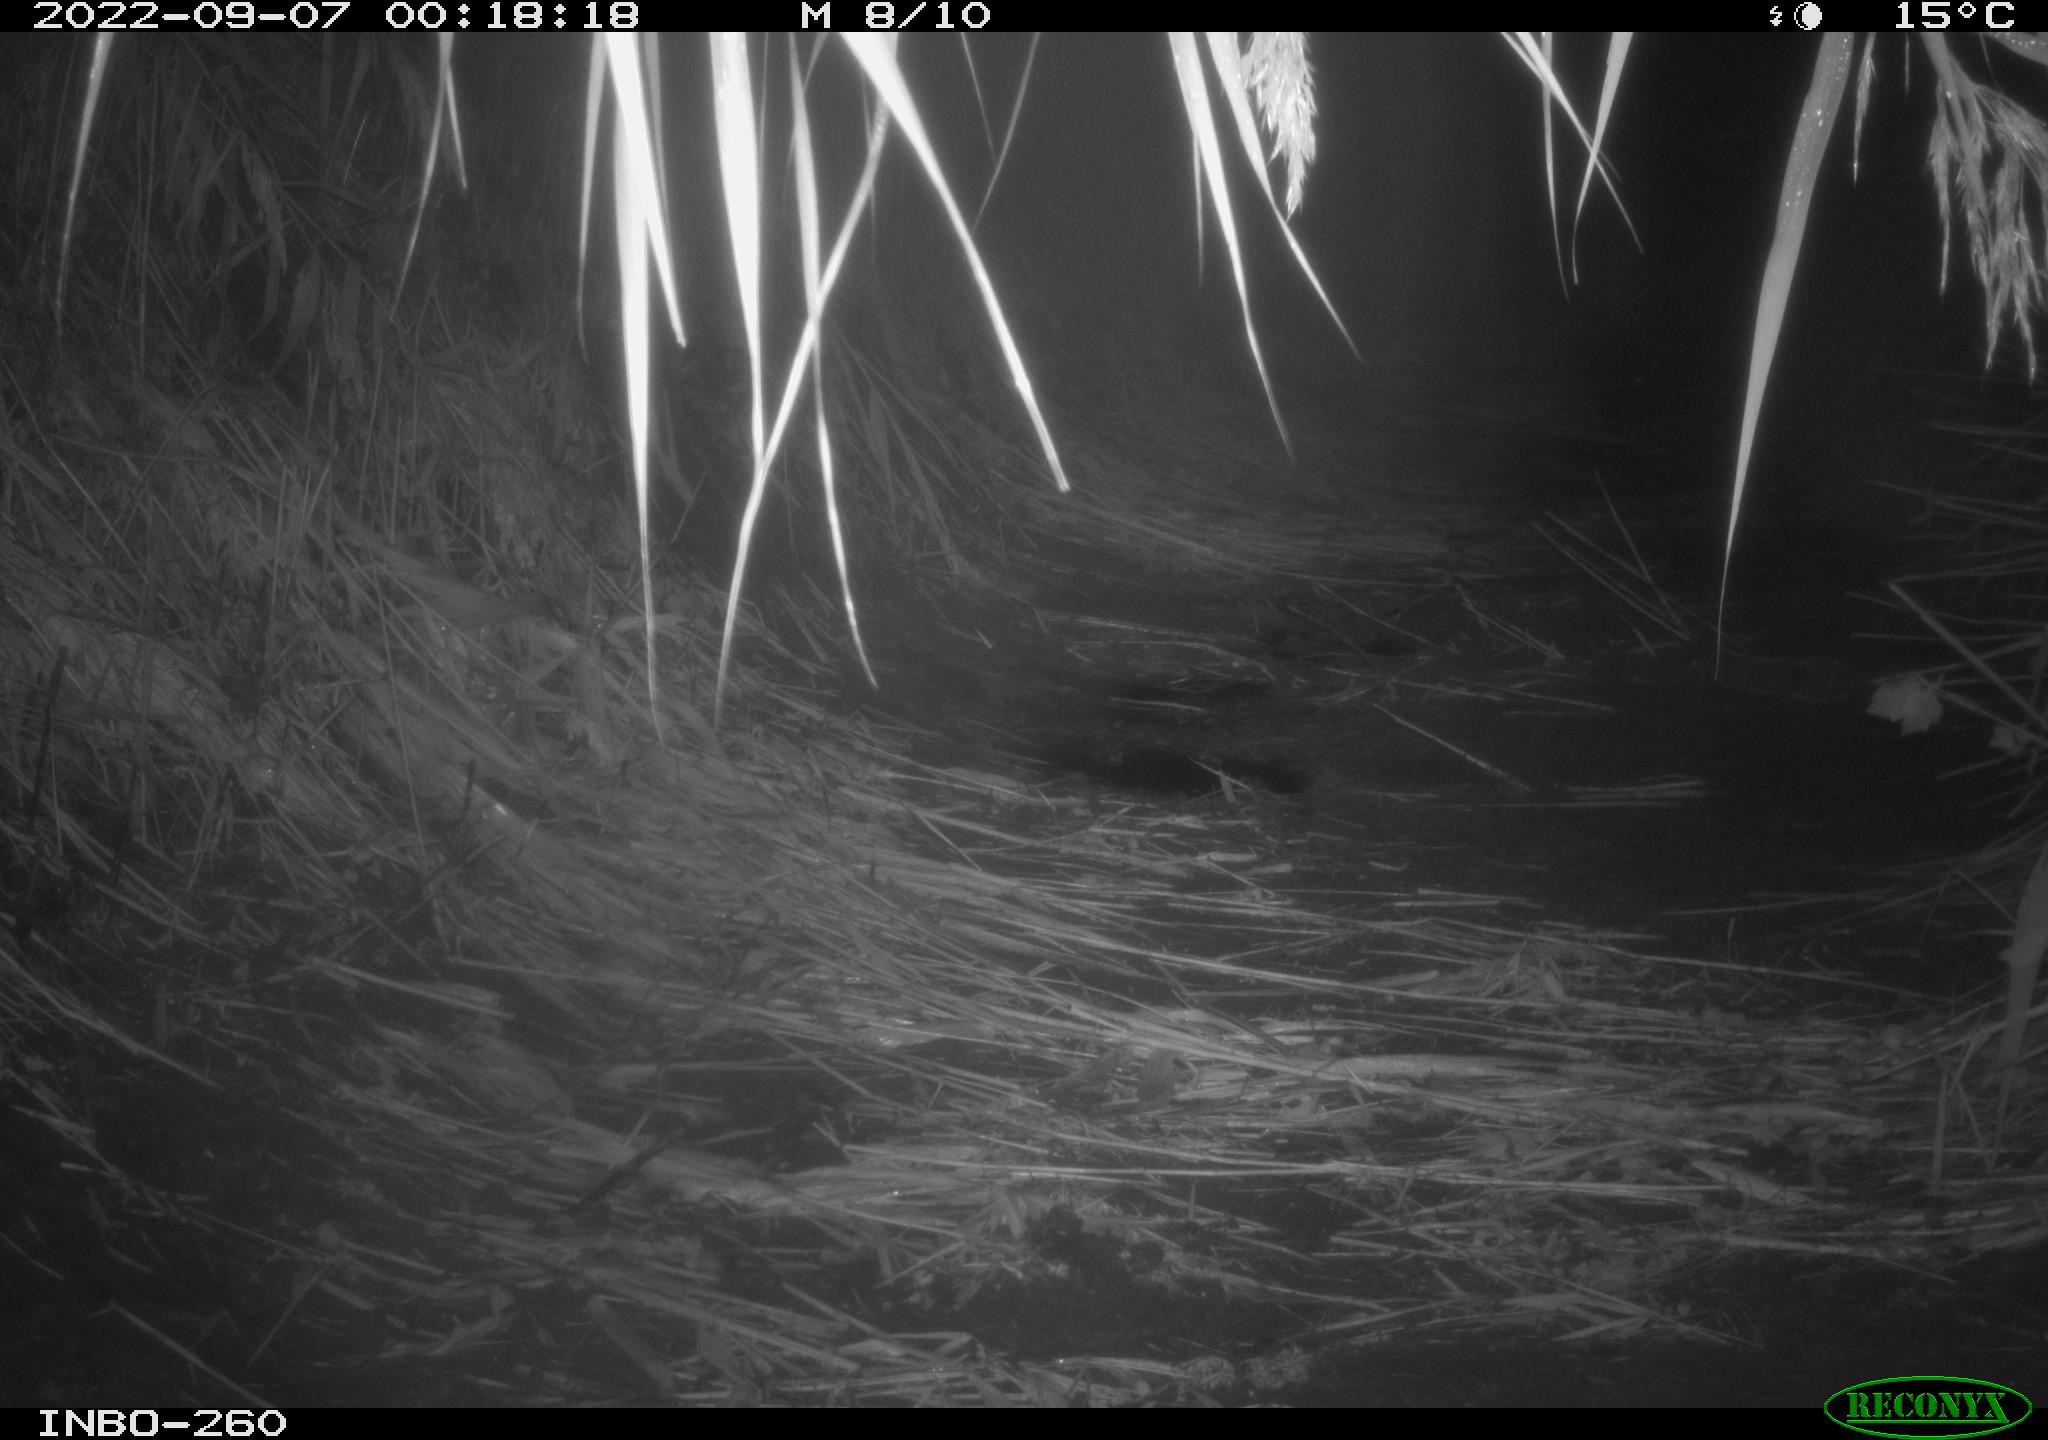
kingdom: Animalia
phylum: Chordata
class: Mammalia
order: Rodentia
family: Muridae
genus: Rattus
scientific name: Rattus norvegicus
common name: Brown rat
